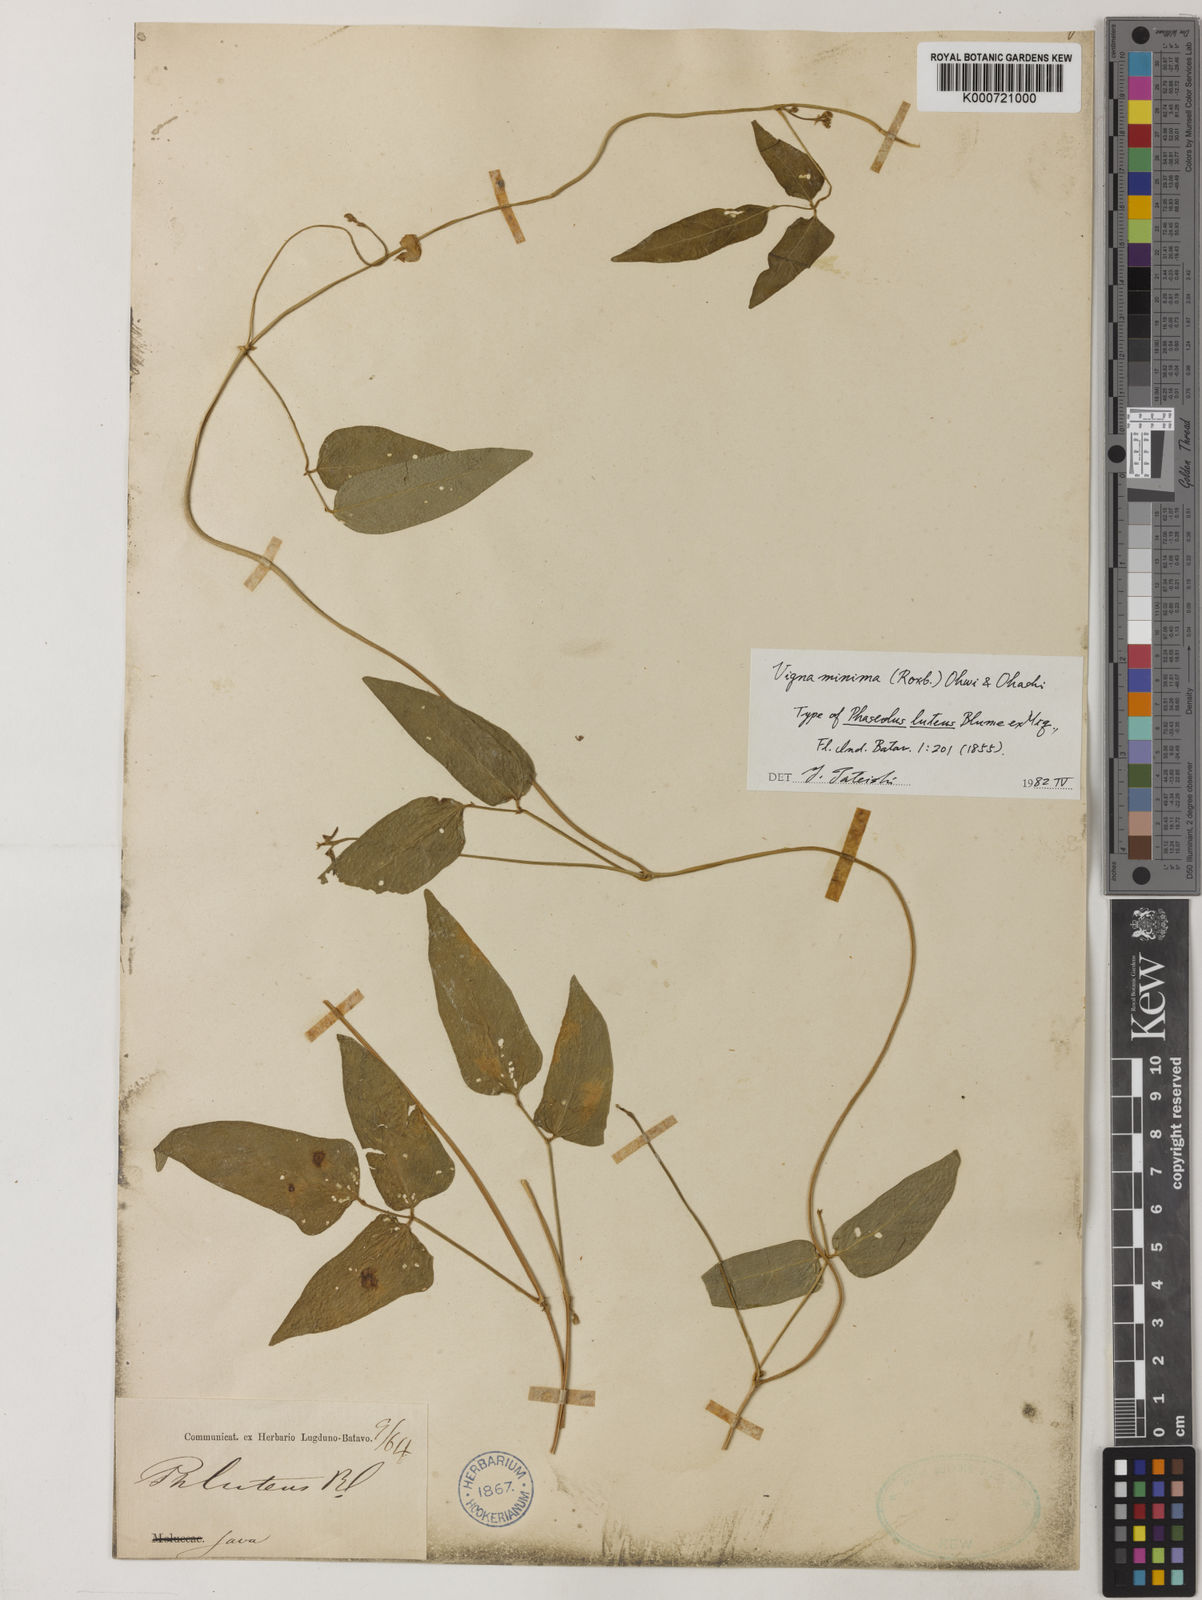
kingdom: Plantae
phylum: Tracheophyta
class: Magnoliopsida
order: Fabales
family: Fabaceae
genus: Vigna
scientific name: Vigna minima
